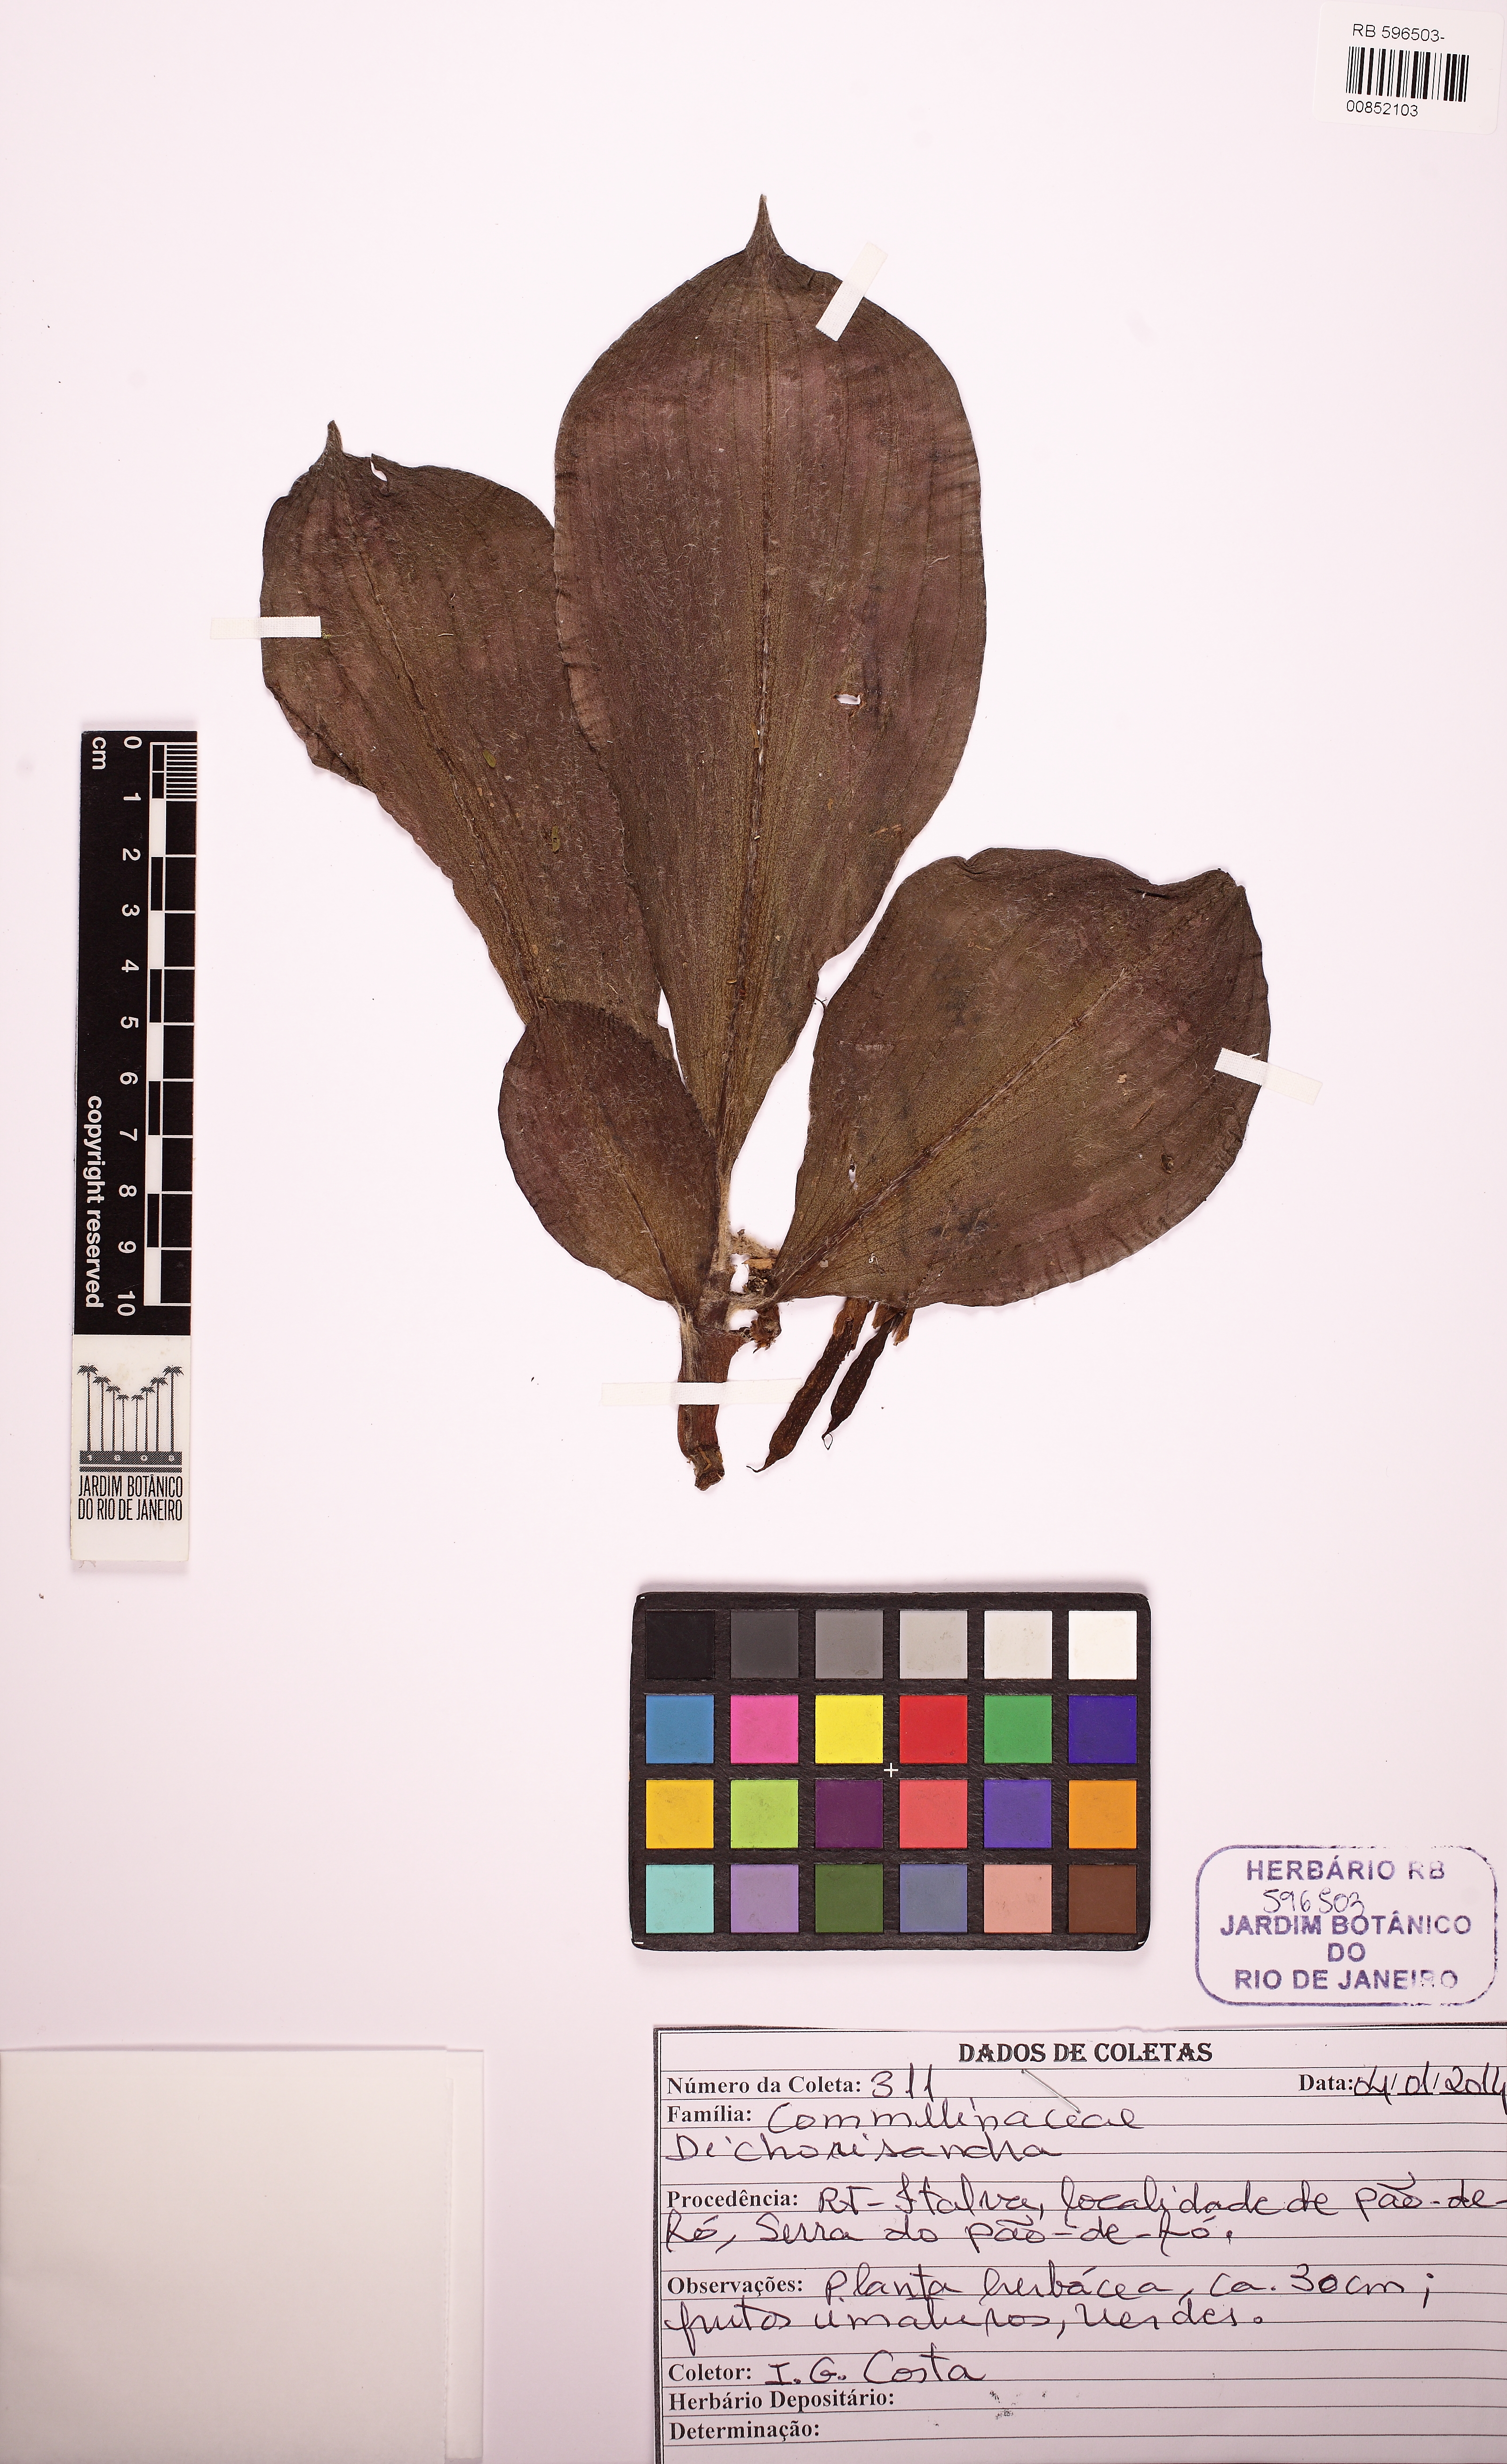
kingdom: Plantae
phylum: Tracheophyta
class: Liliopsida
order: Commelinales
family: Commelinaceae
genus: Dichorisandra
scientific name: Dichorisandra picta
